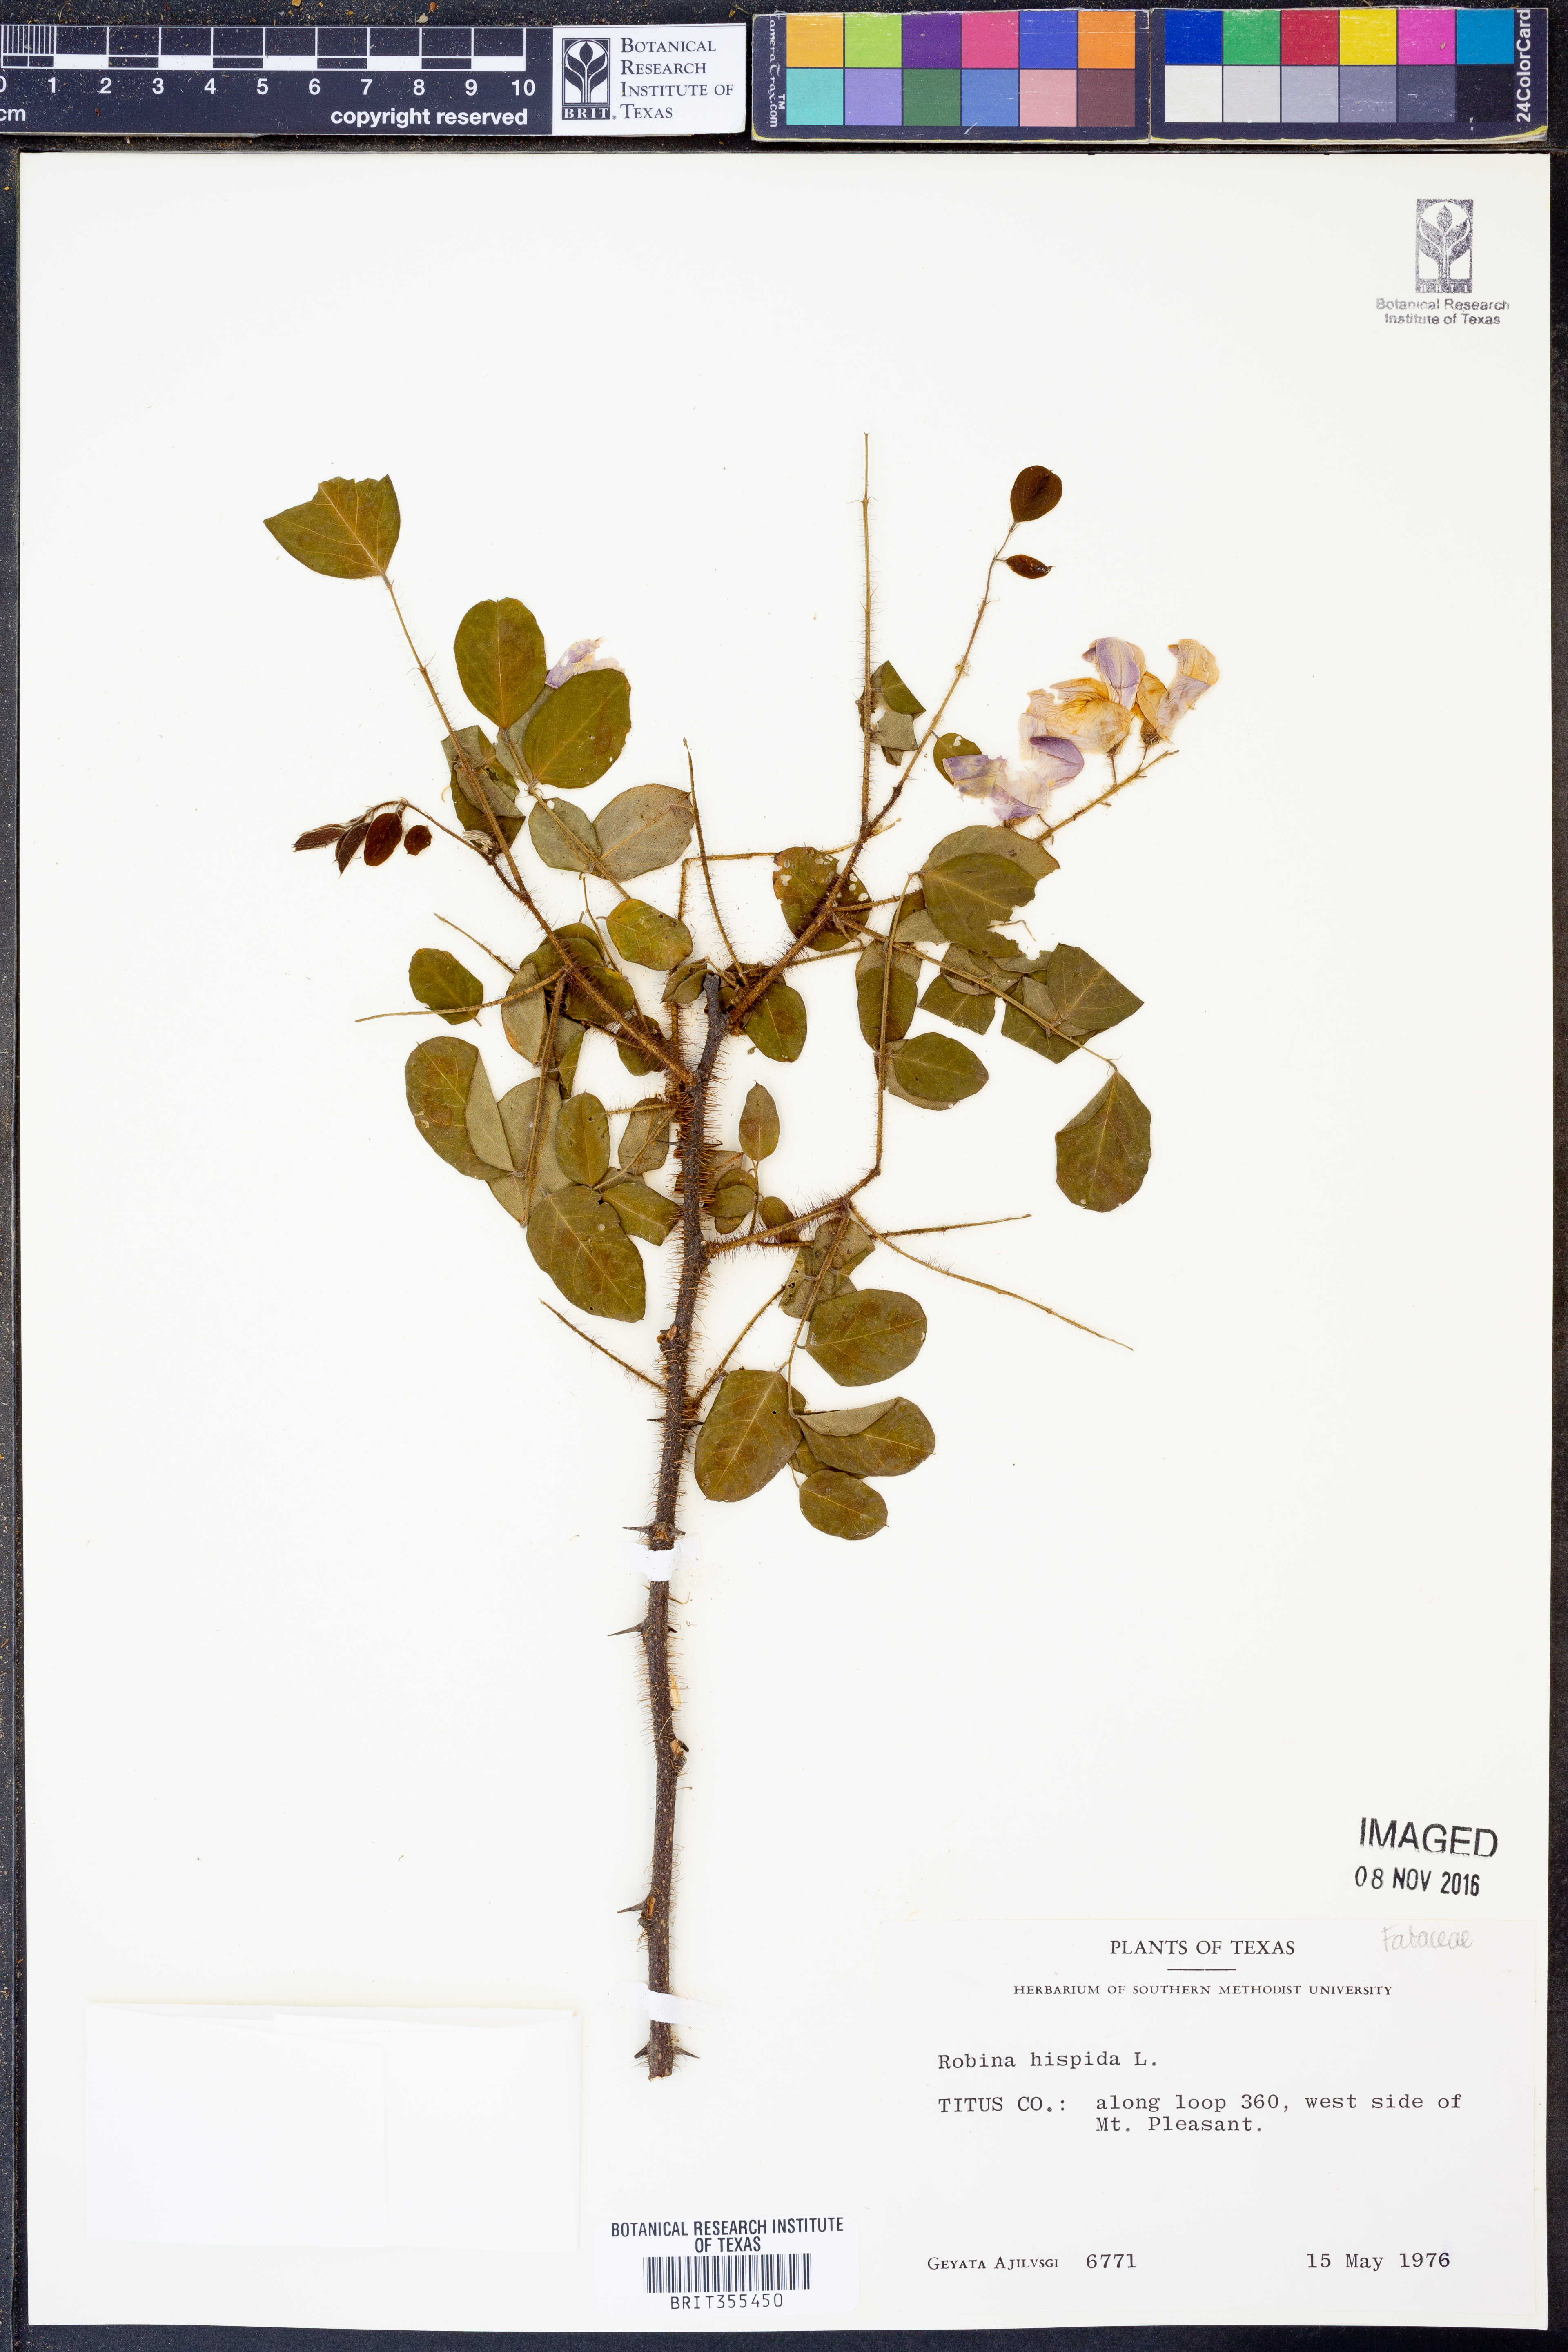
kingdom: Plantae
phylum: Tracheophyta
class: Magnoliopsida
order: Fabales
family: Fabaceae
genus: Robinia
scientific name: Robinia hispida
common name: Bristly locust
